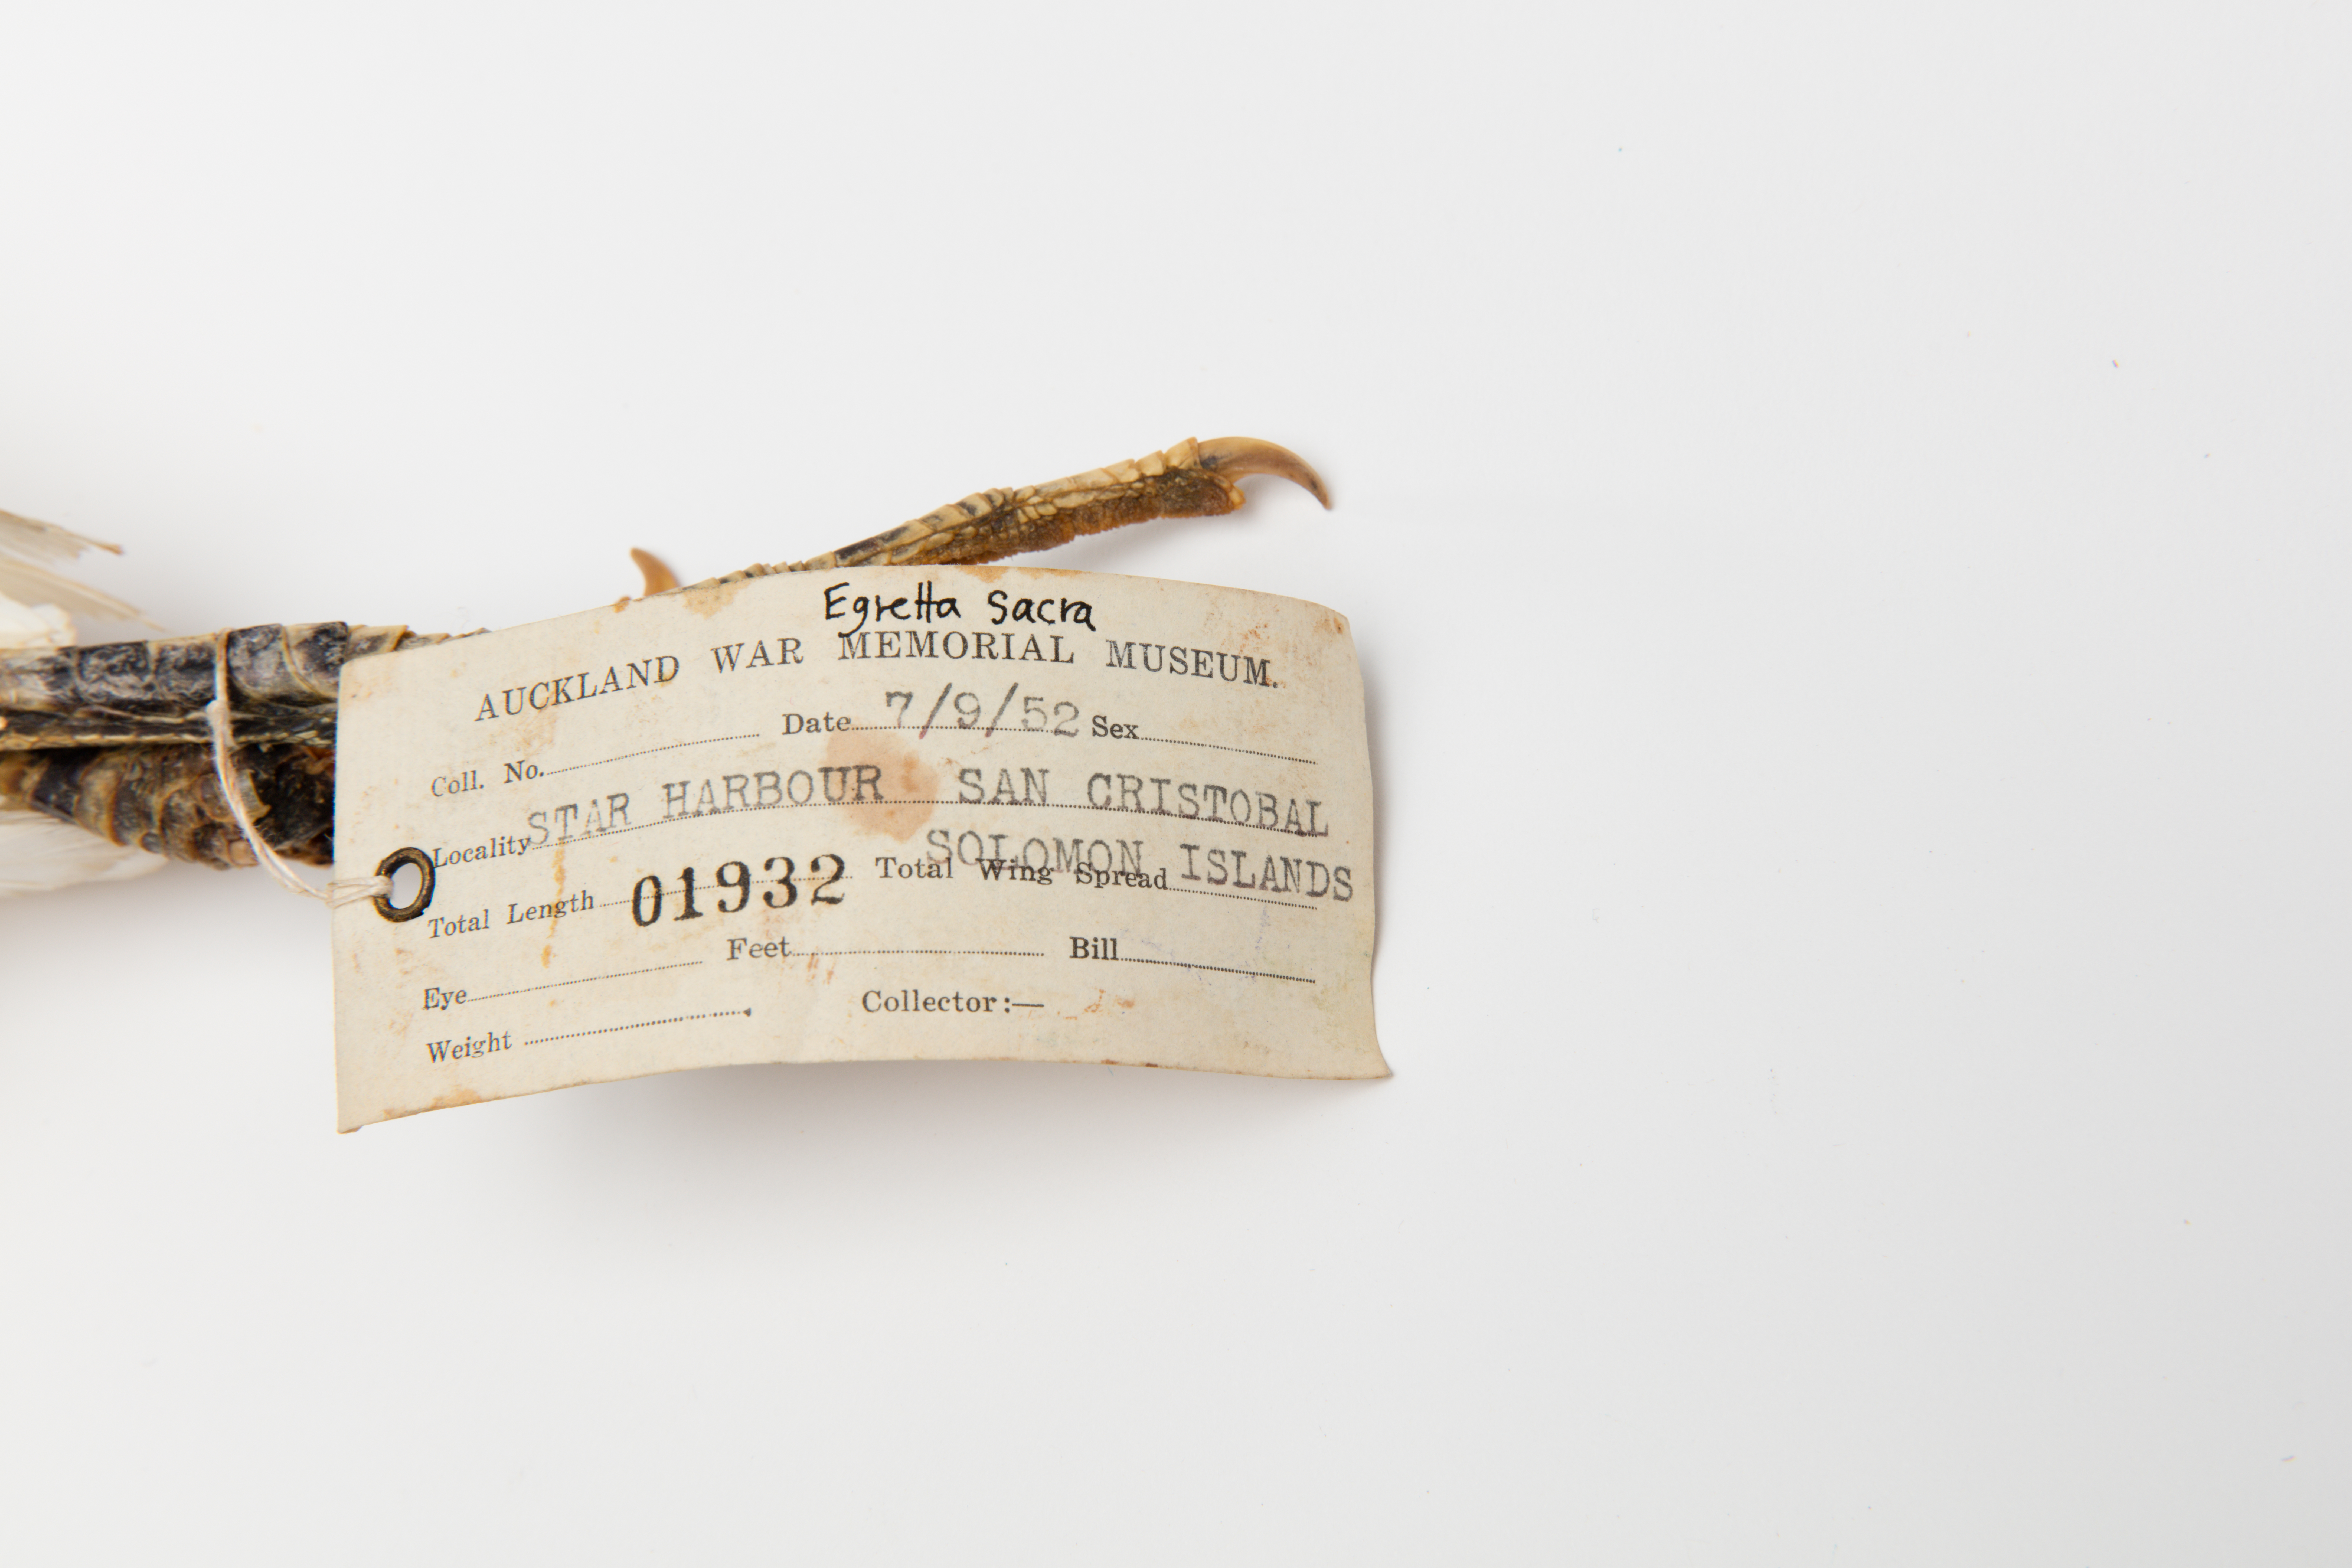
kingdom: Animalia
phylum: Chordata
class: Aves
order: Pelecaniformes
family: Ardeidae
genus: Egretta
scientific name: Egretta sacra
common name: Pacific reef heron
